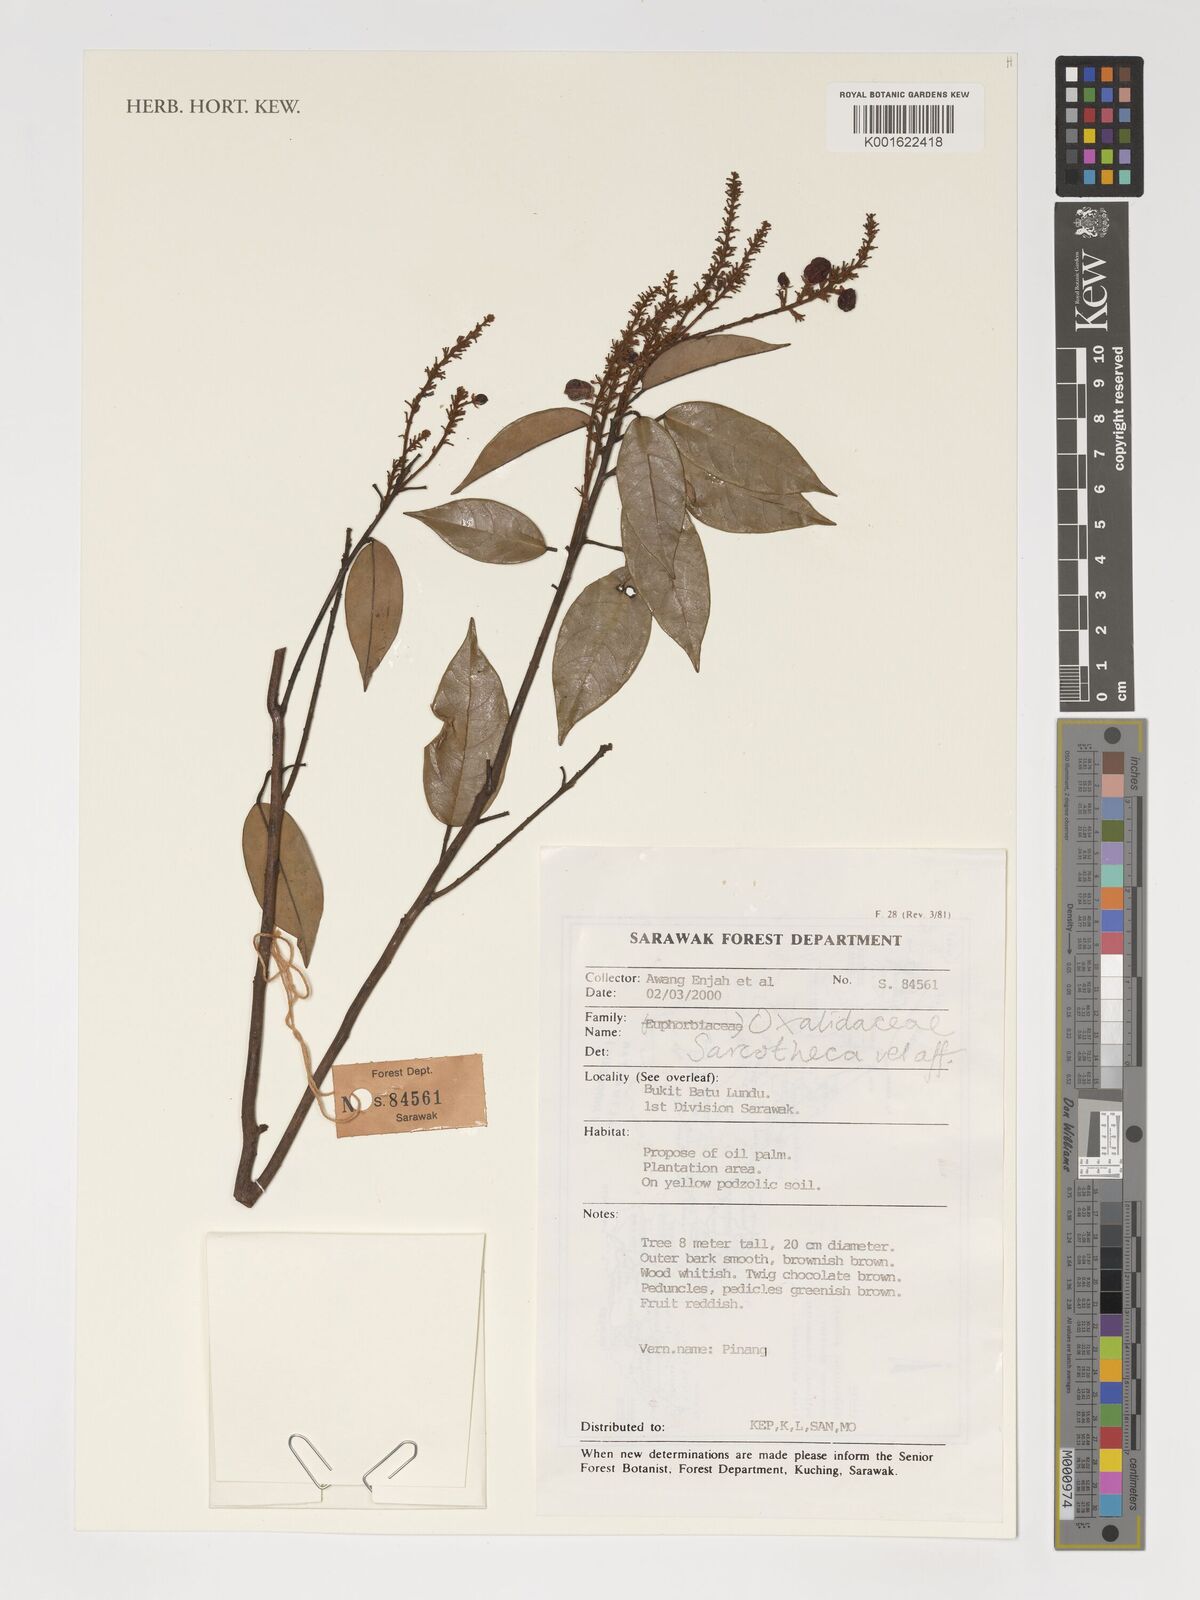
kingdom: Plantae
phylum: Tracheophyta
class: Magnoliopsida
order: Oxalidales
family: Oxalidaceae
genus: Sarcotheca
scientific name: Sarcotheca
